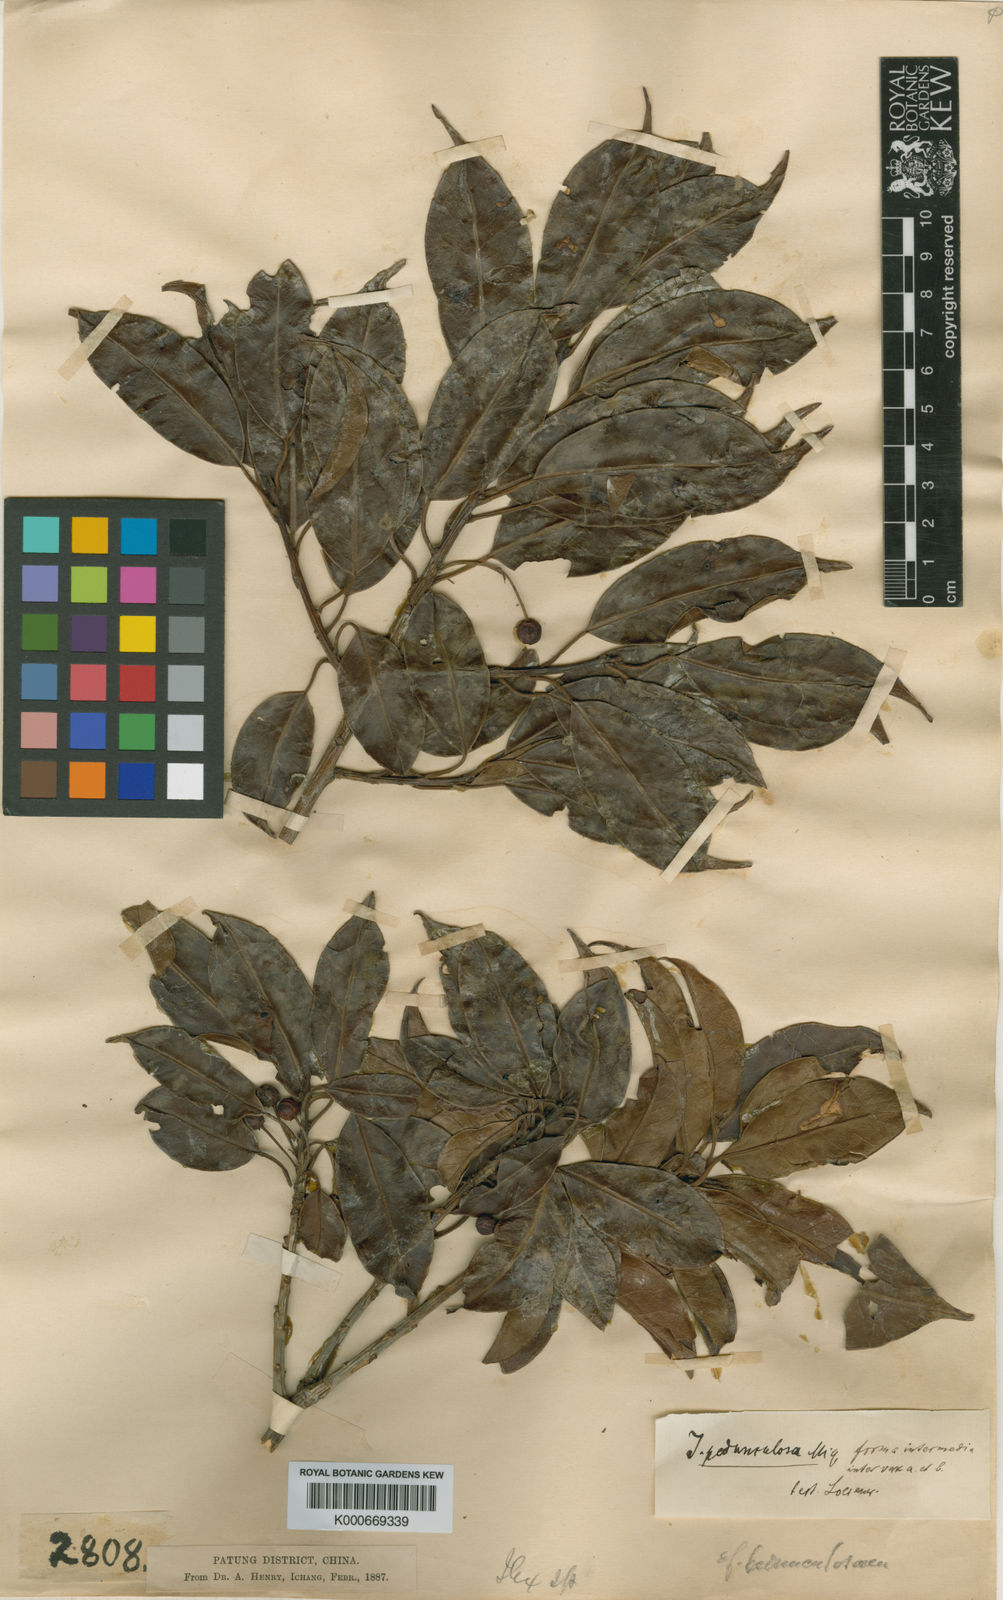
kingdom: Plantae
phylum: Tracheophyta
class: Magnoliopsida
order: Aquifoliales
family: Aquifoliaceae
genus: Ilex
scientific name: Ilex pedunculosa
